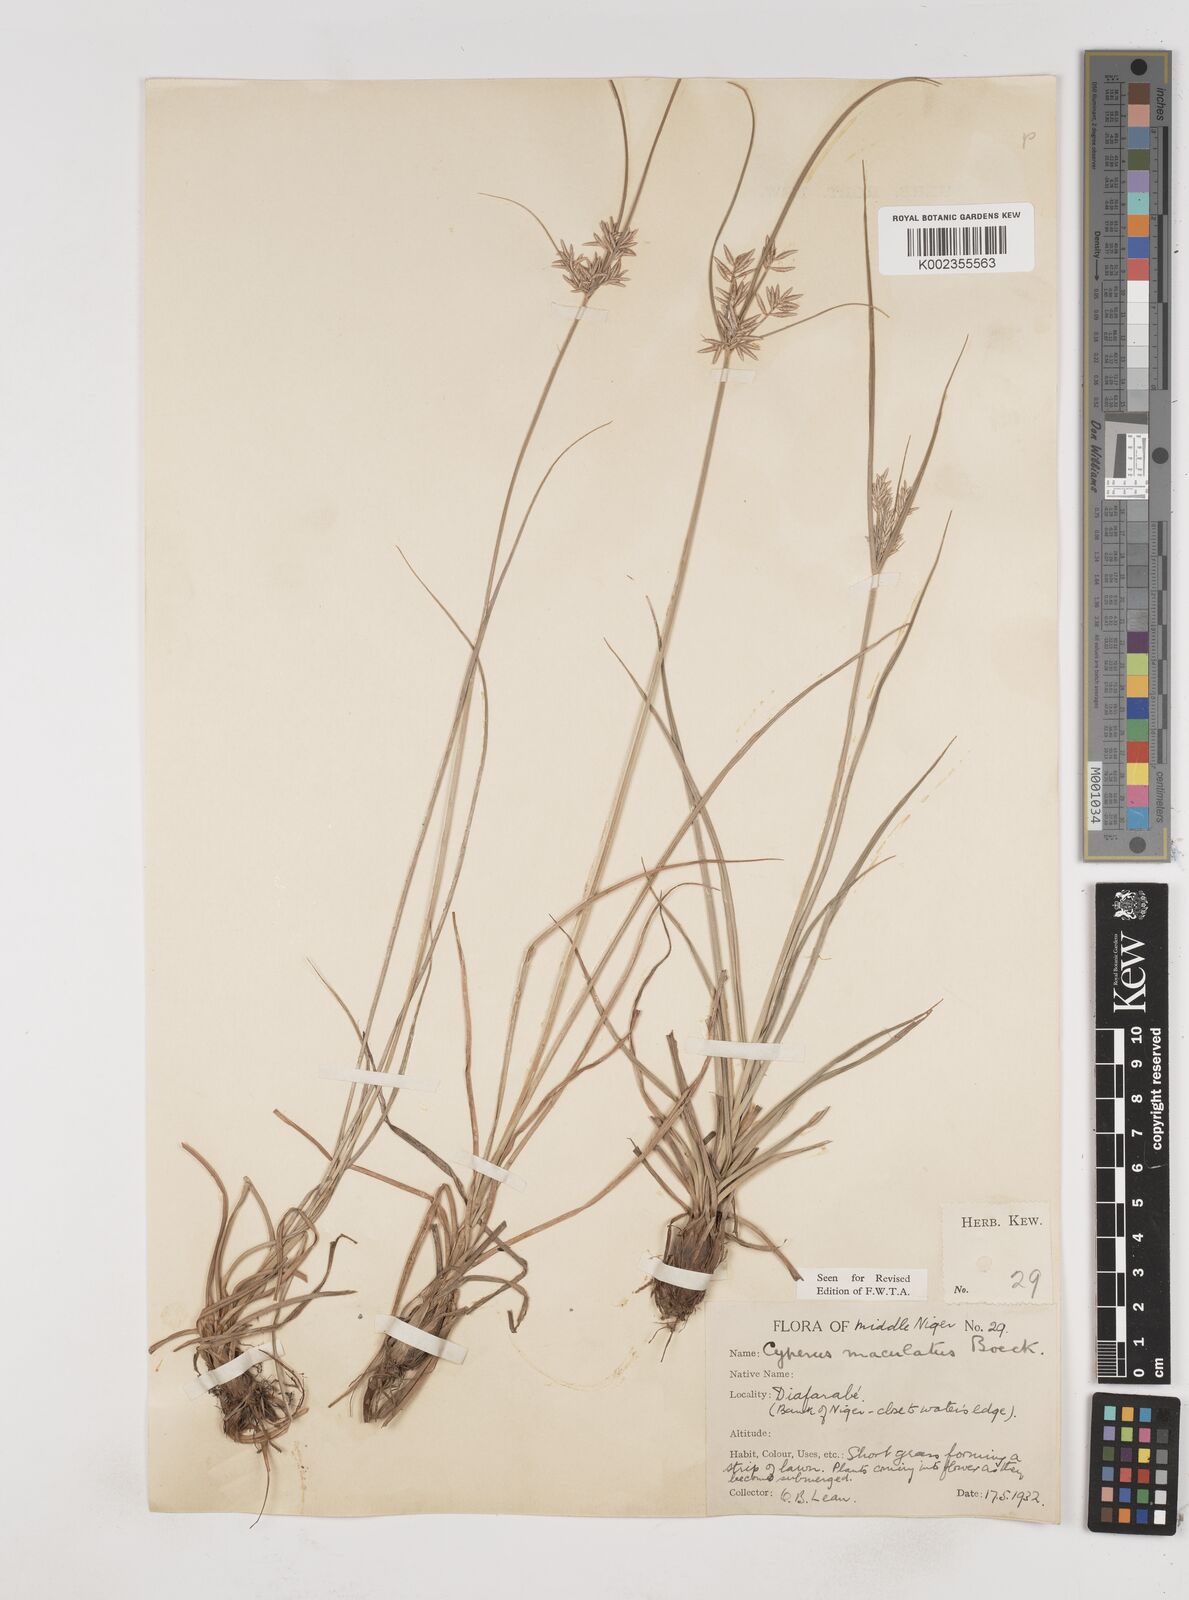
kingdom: Plantae
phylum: Tracheophyta
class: Liliopsida
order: Poales
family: Cyperaceae
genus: Cyperus
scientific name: Cyperus maculatus
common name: Maculated sedge
